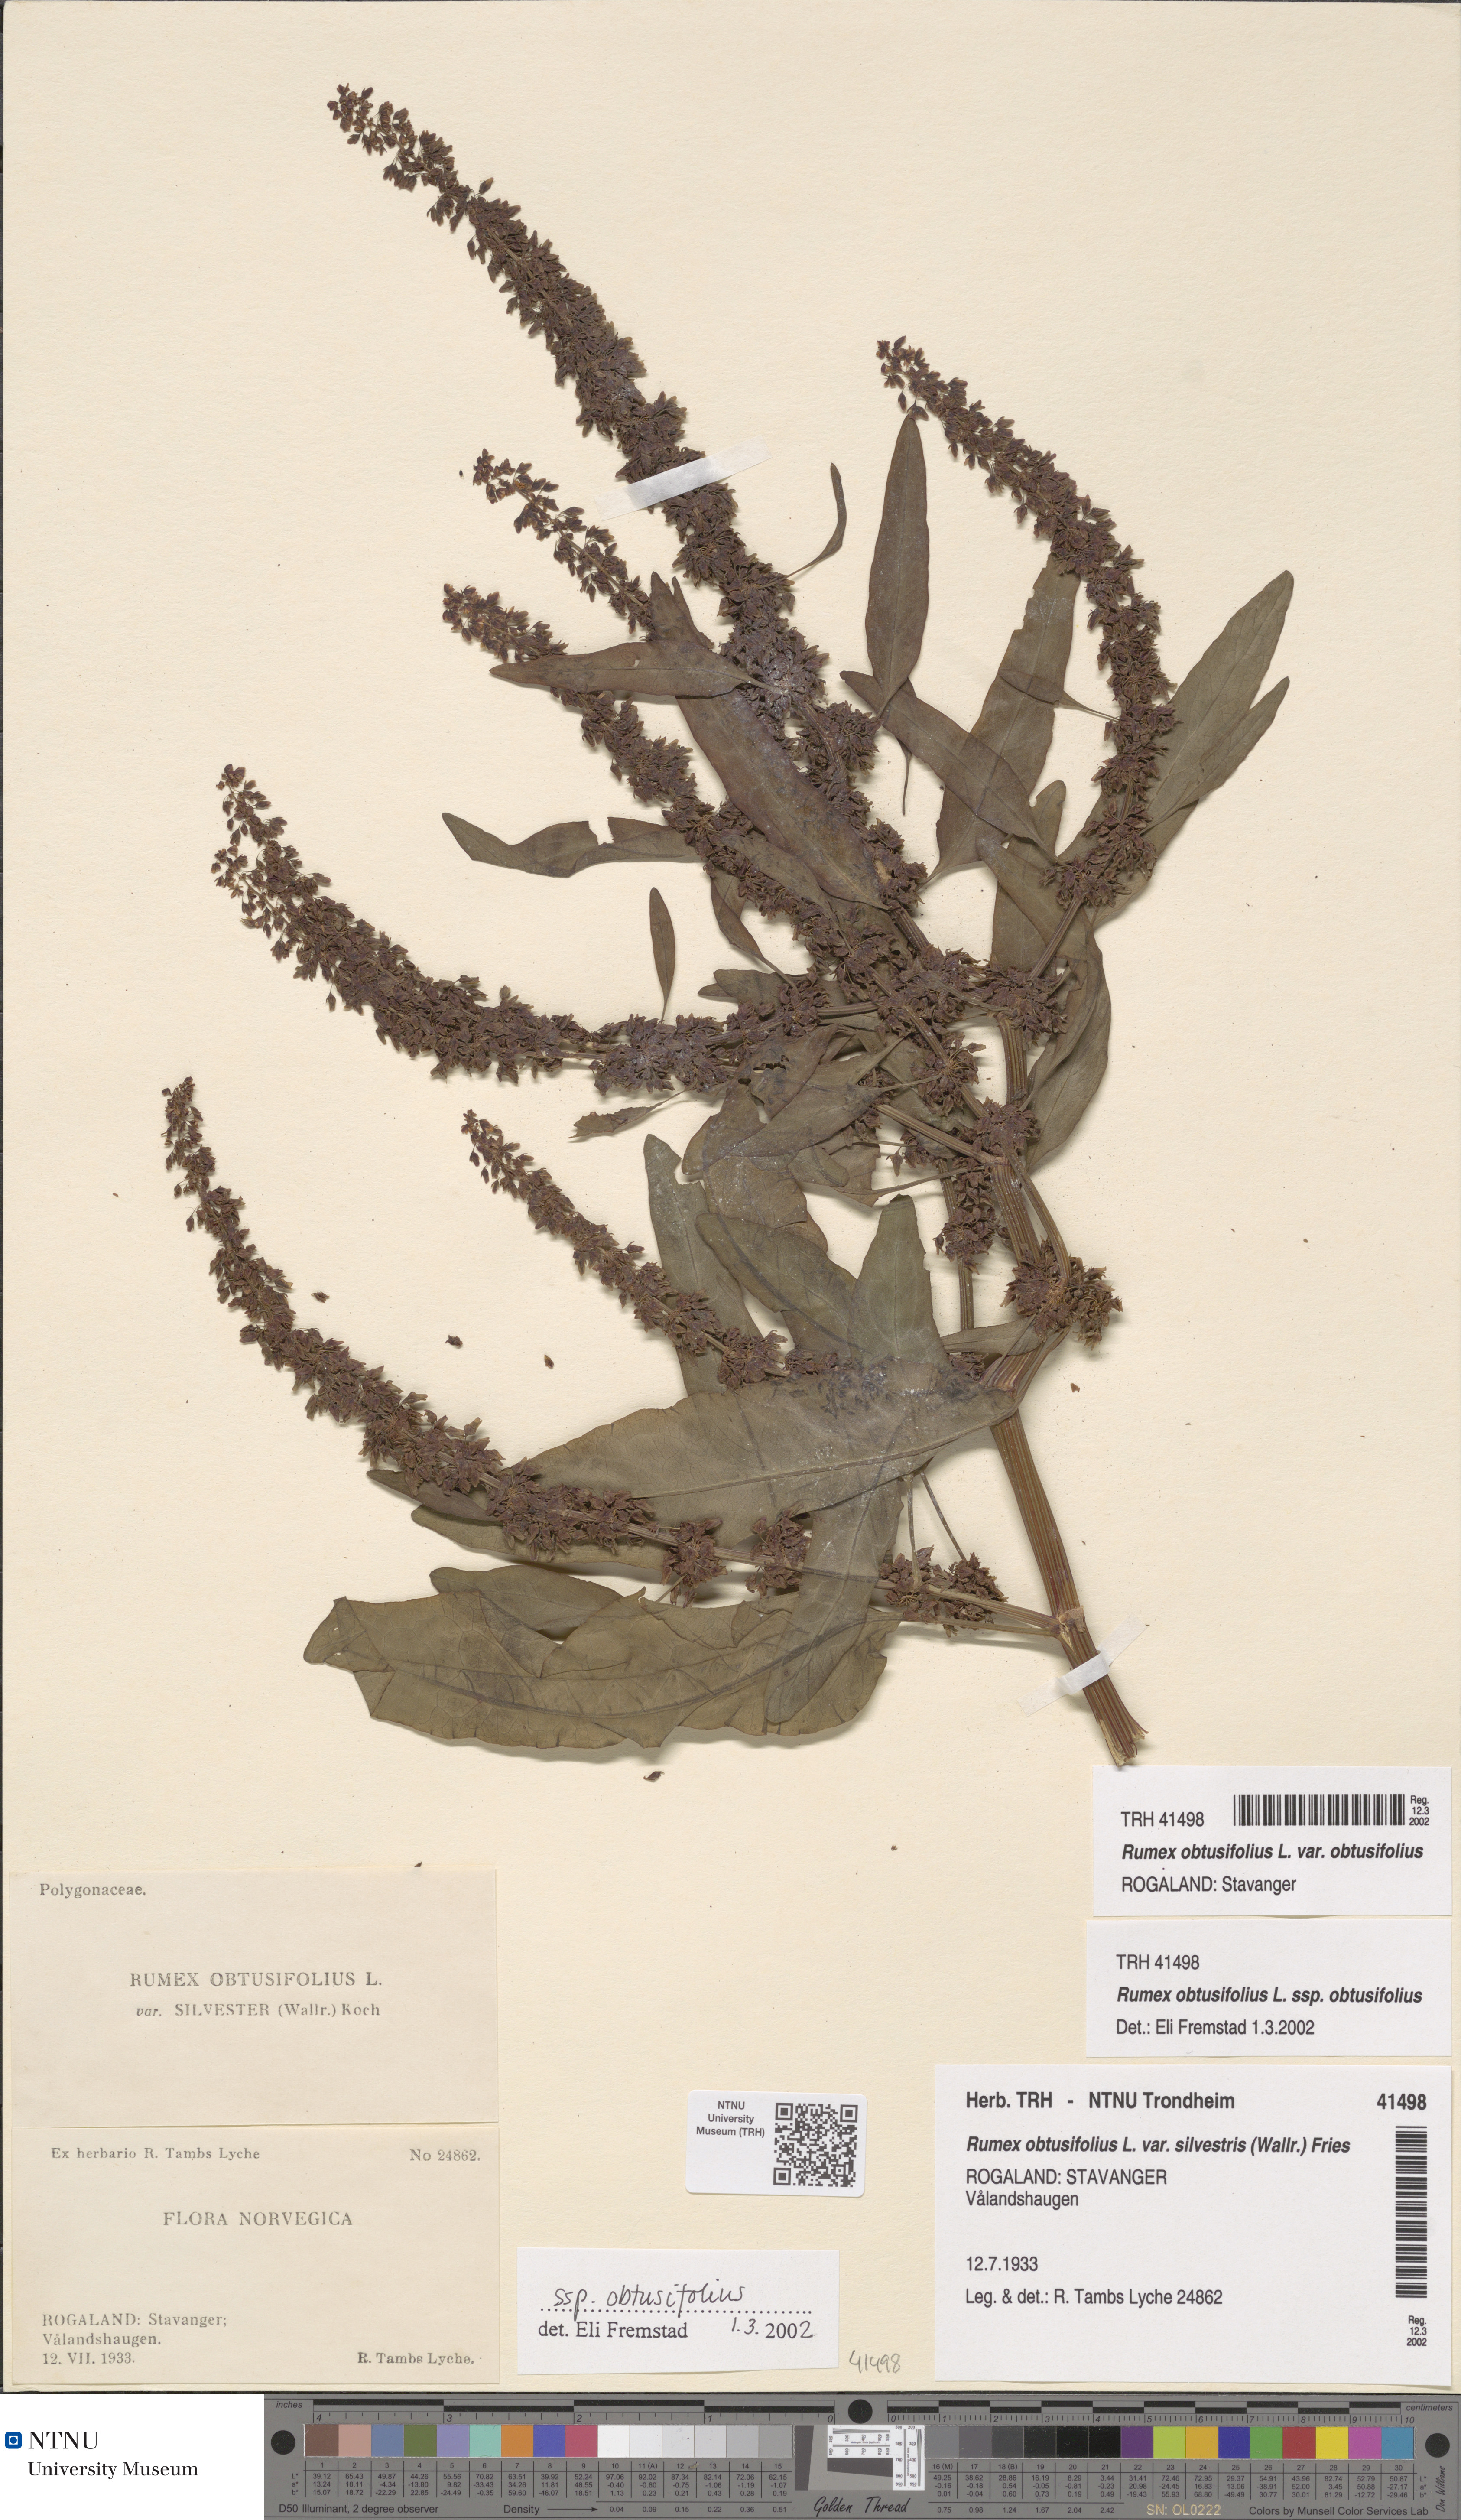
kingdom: Plantae
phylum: Tracheophyta
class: Magnoliopsida
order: Caryophyllales
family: Polygonaceae
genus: Rumex
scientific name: Rumex obtusifolius
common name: Bitter dock
